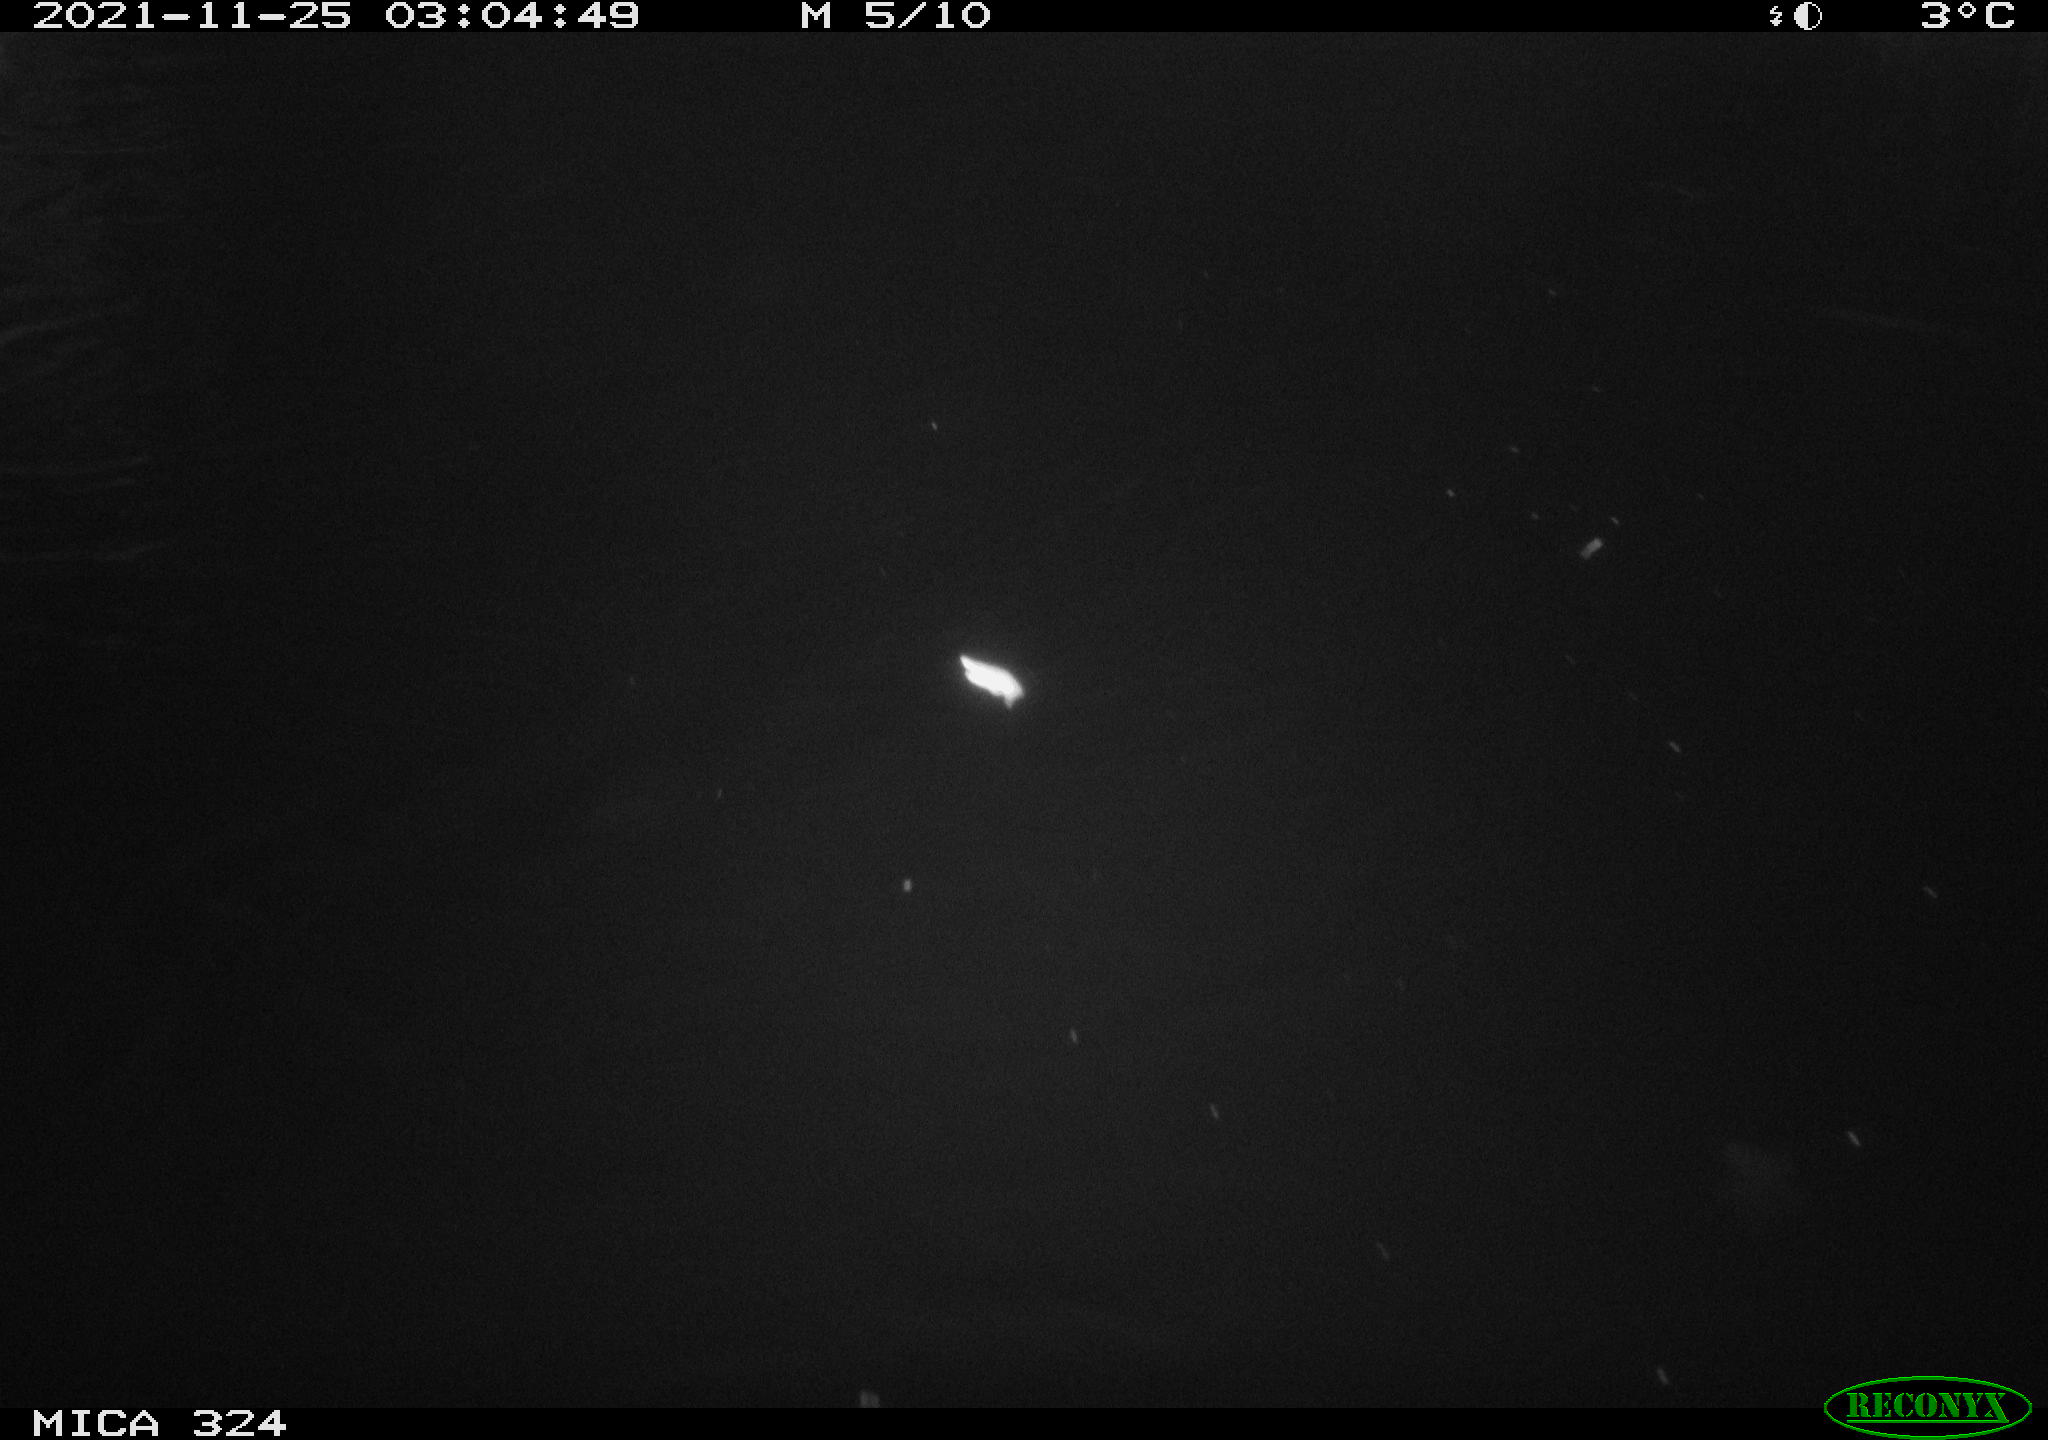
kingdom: Animalia
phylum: Chordata
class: Mammalia
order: Rodentia
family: Cricetidae
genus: Ondatra
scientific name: Ondatra zibethicus
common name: Muskrat
